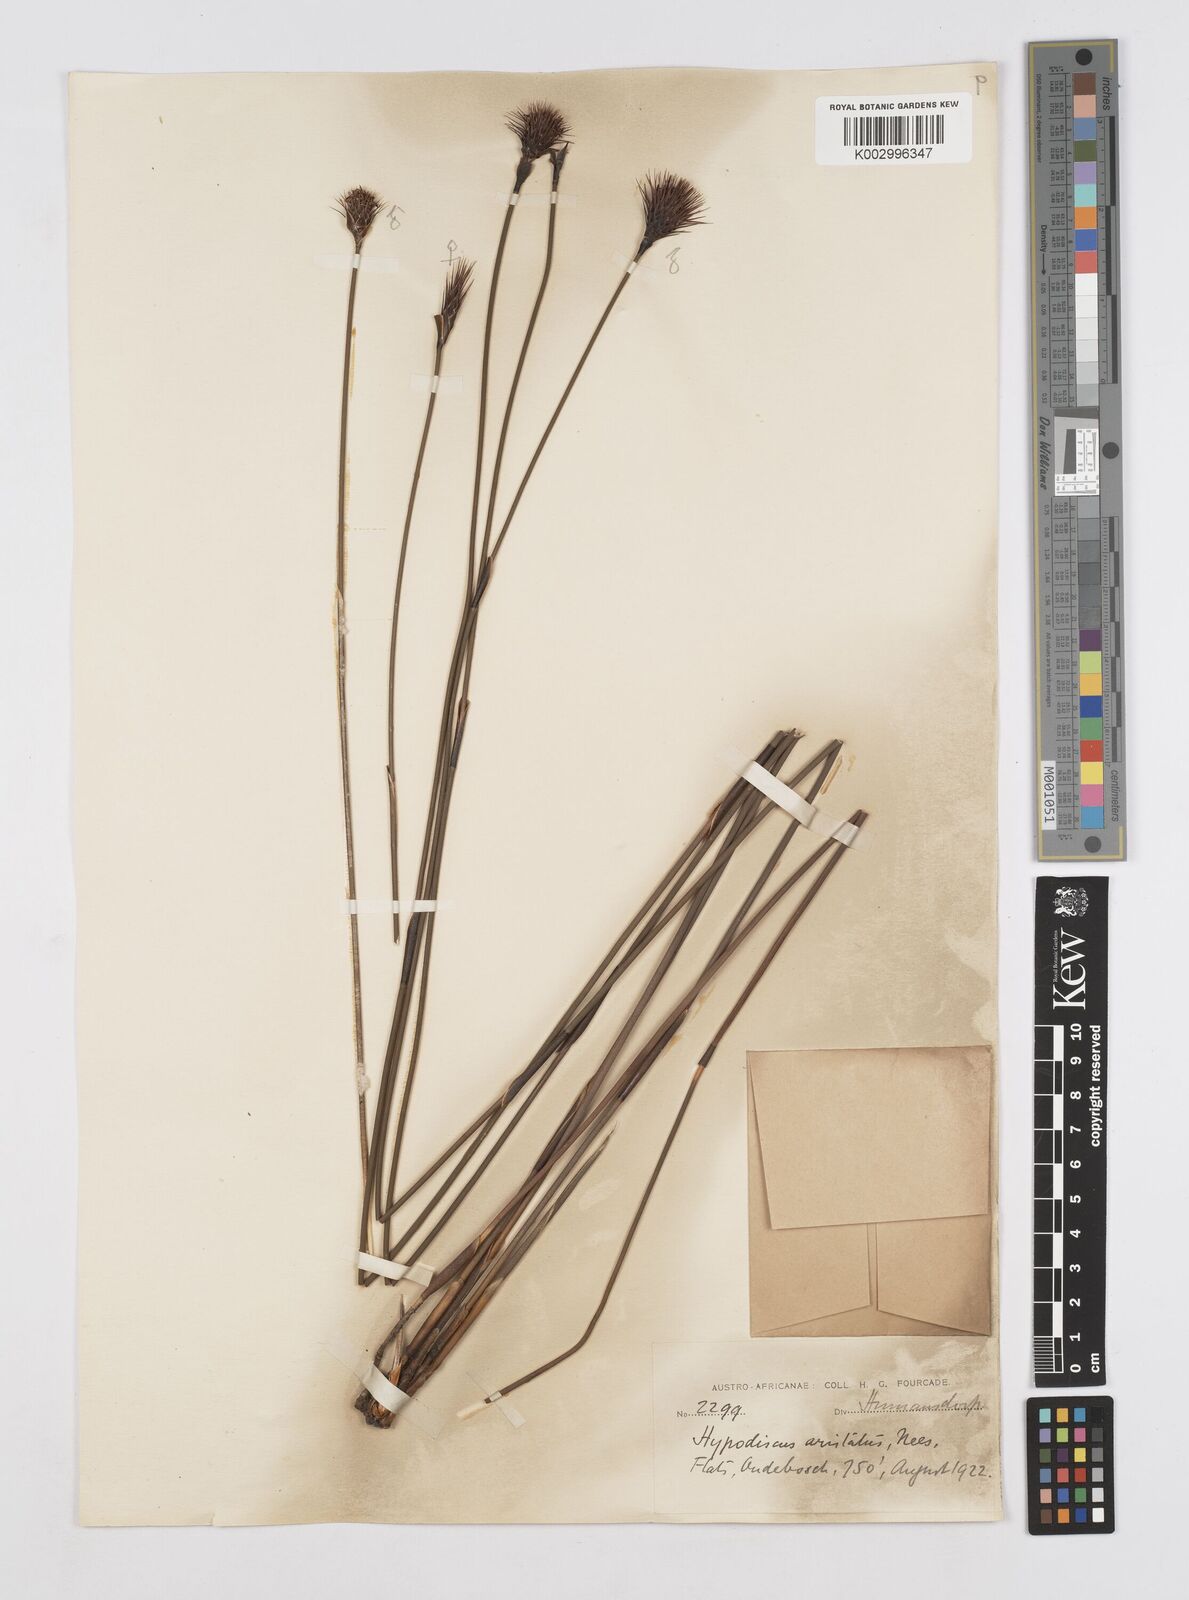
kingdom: Plantae
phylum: Tracheophyta
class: Liliopsida
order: Poales
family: Restionaceae
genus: Hypodiscus
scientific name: Hypodiscus aristatus
